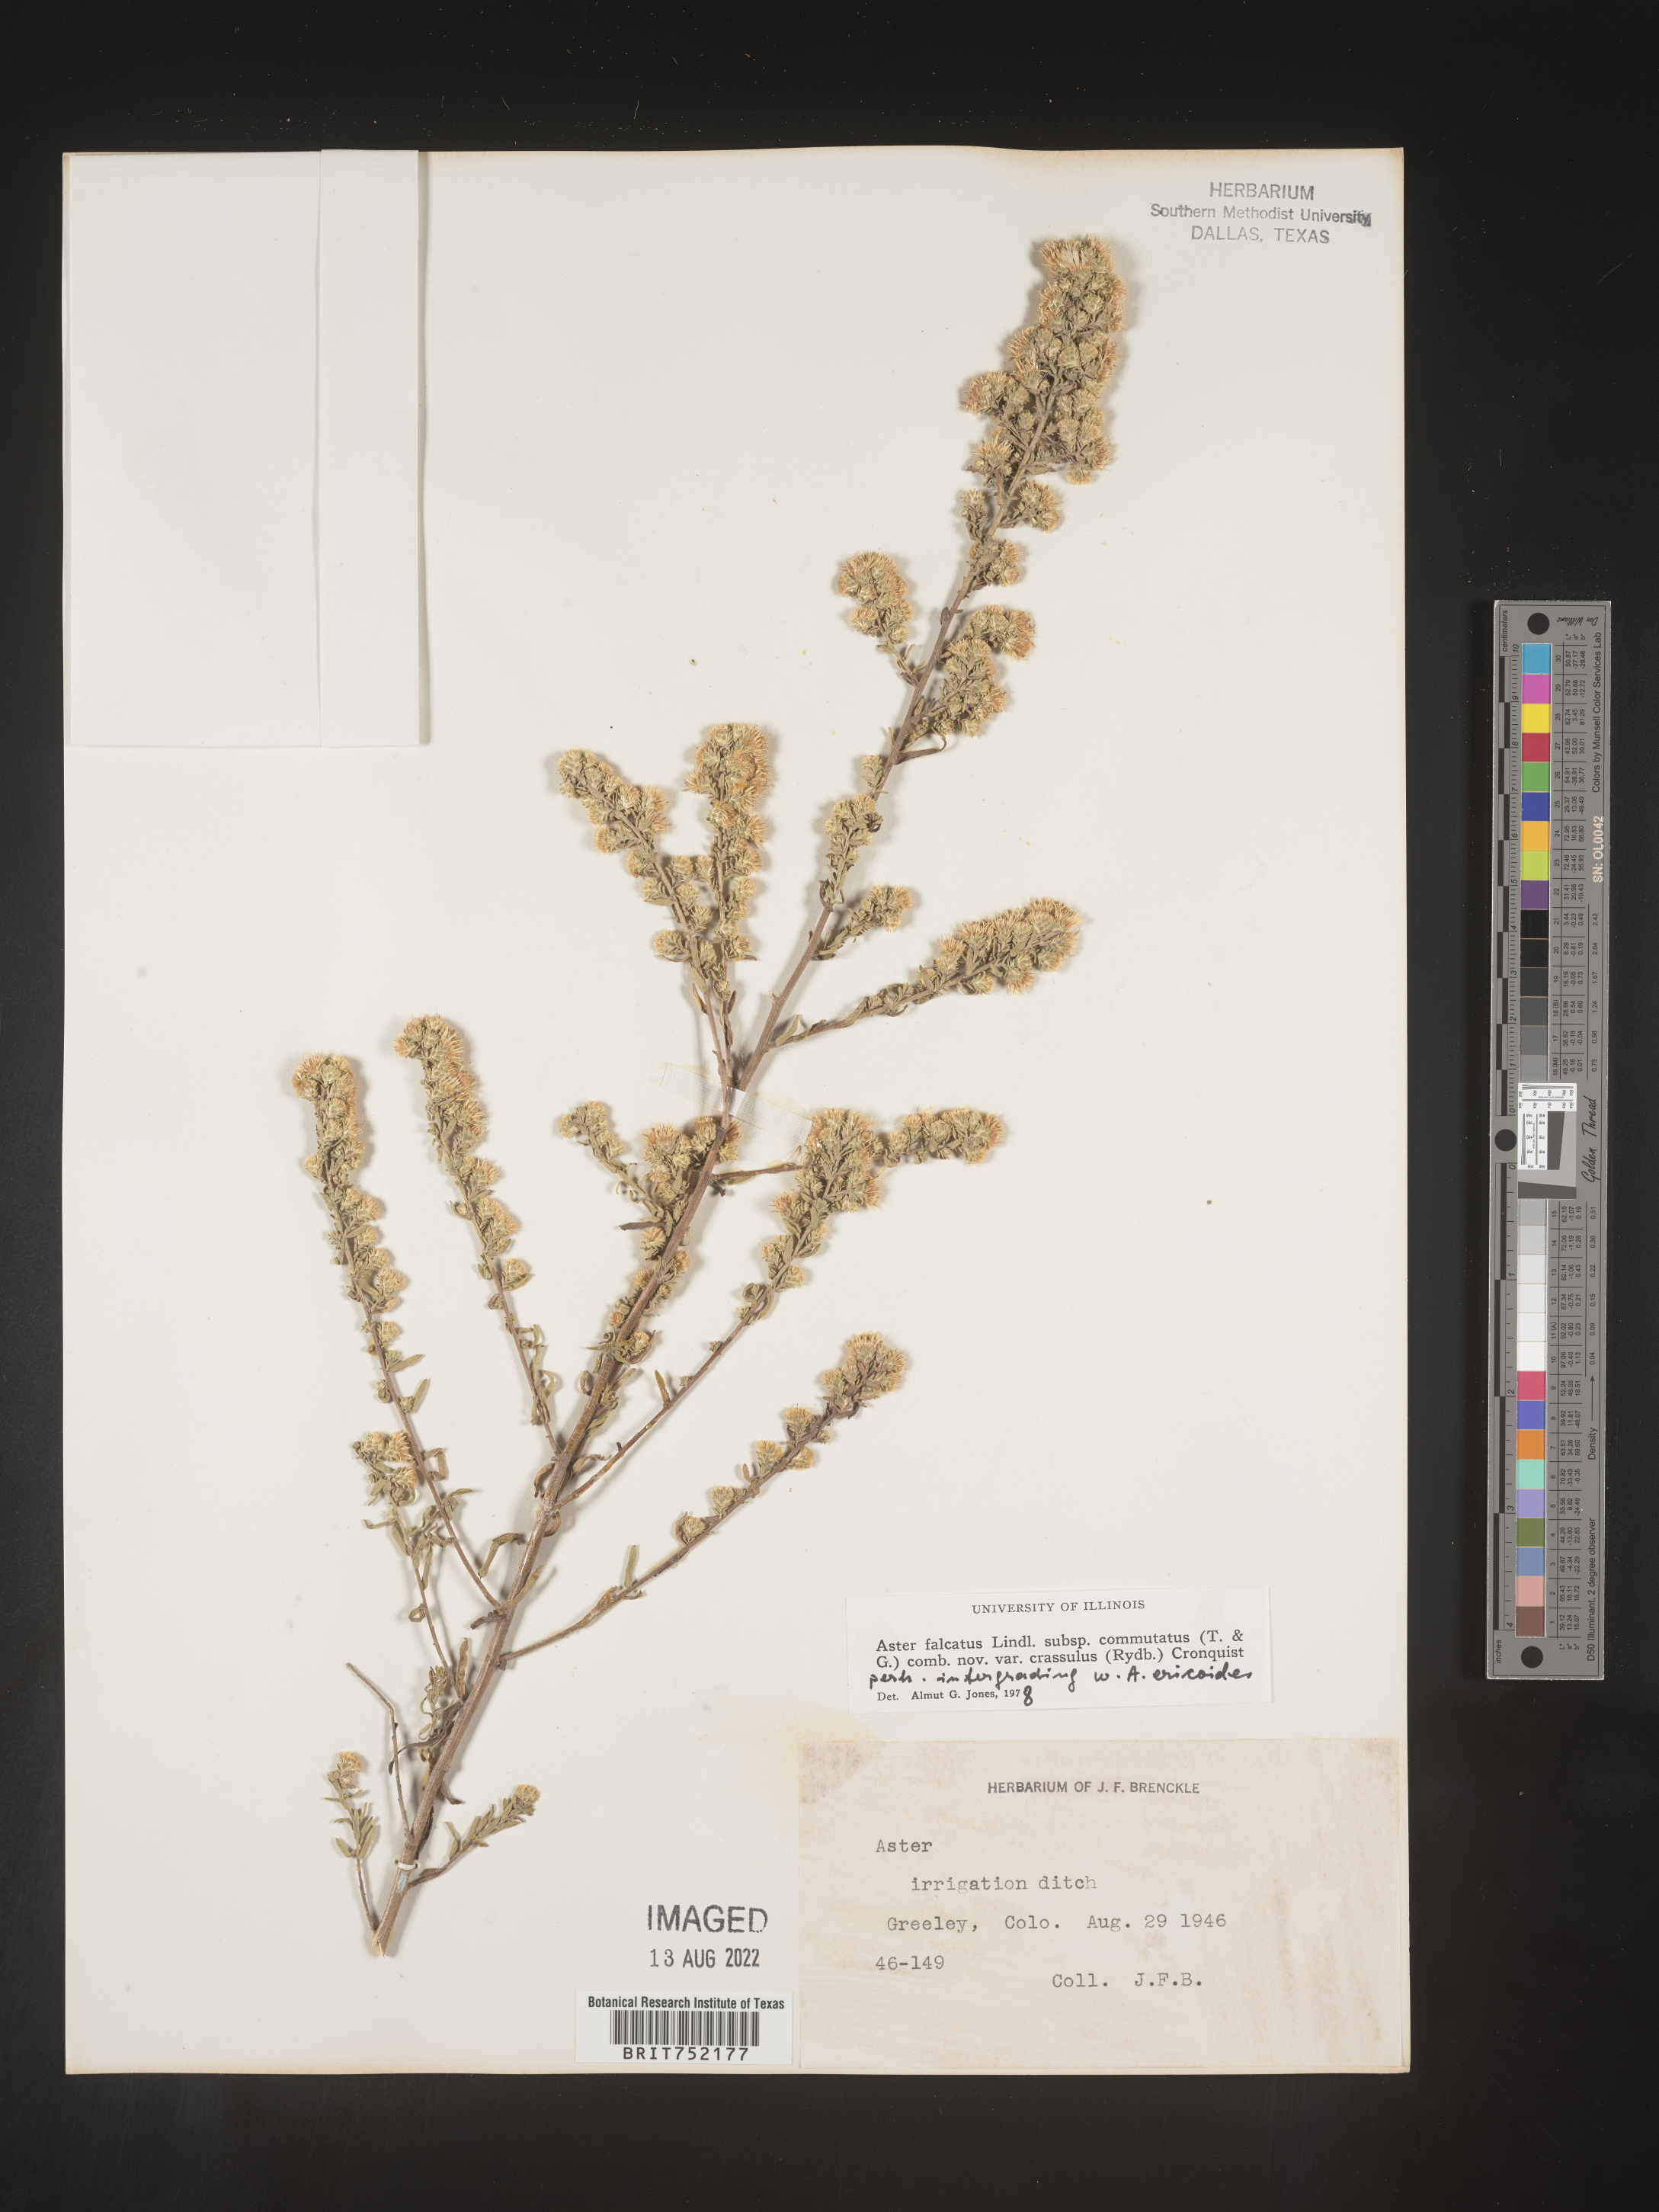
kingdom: Plantae
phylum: Tracheophyta
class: Magnoliopsida
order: Asterales
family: Asteraceae
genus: Symphyotrichum
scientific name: Symphyotrichum ericoides
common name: Heath aster
